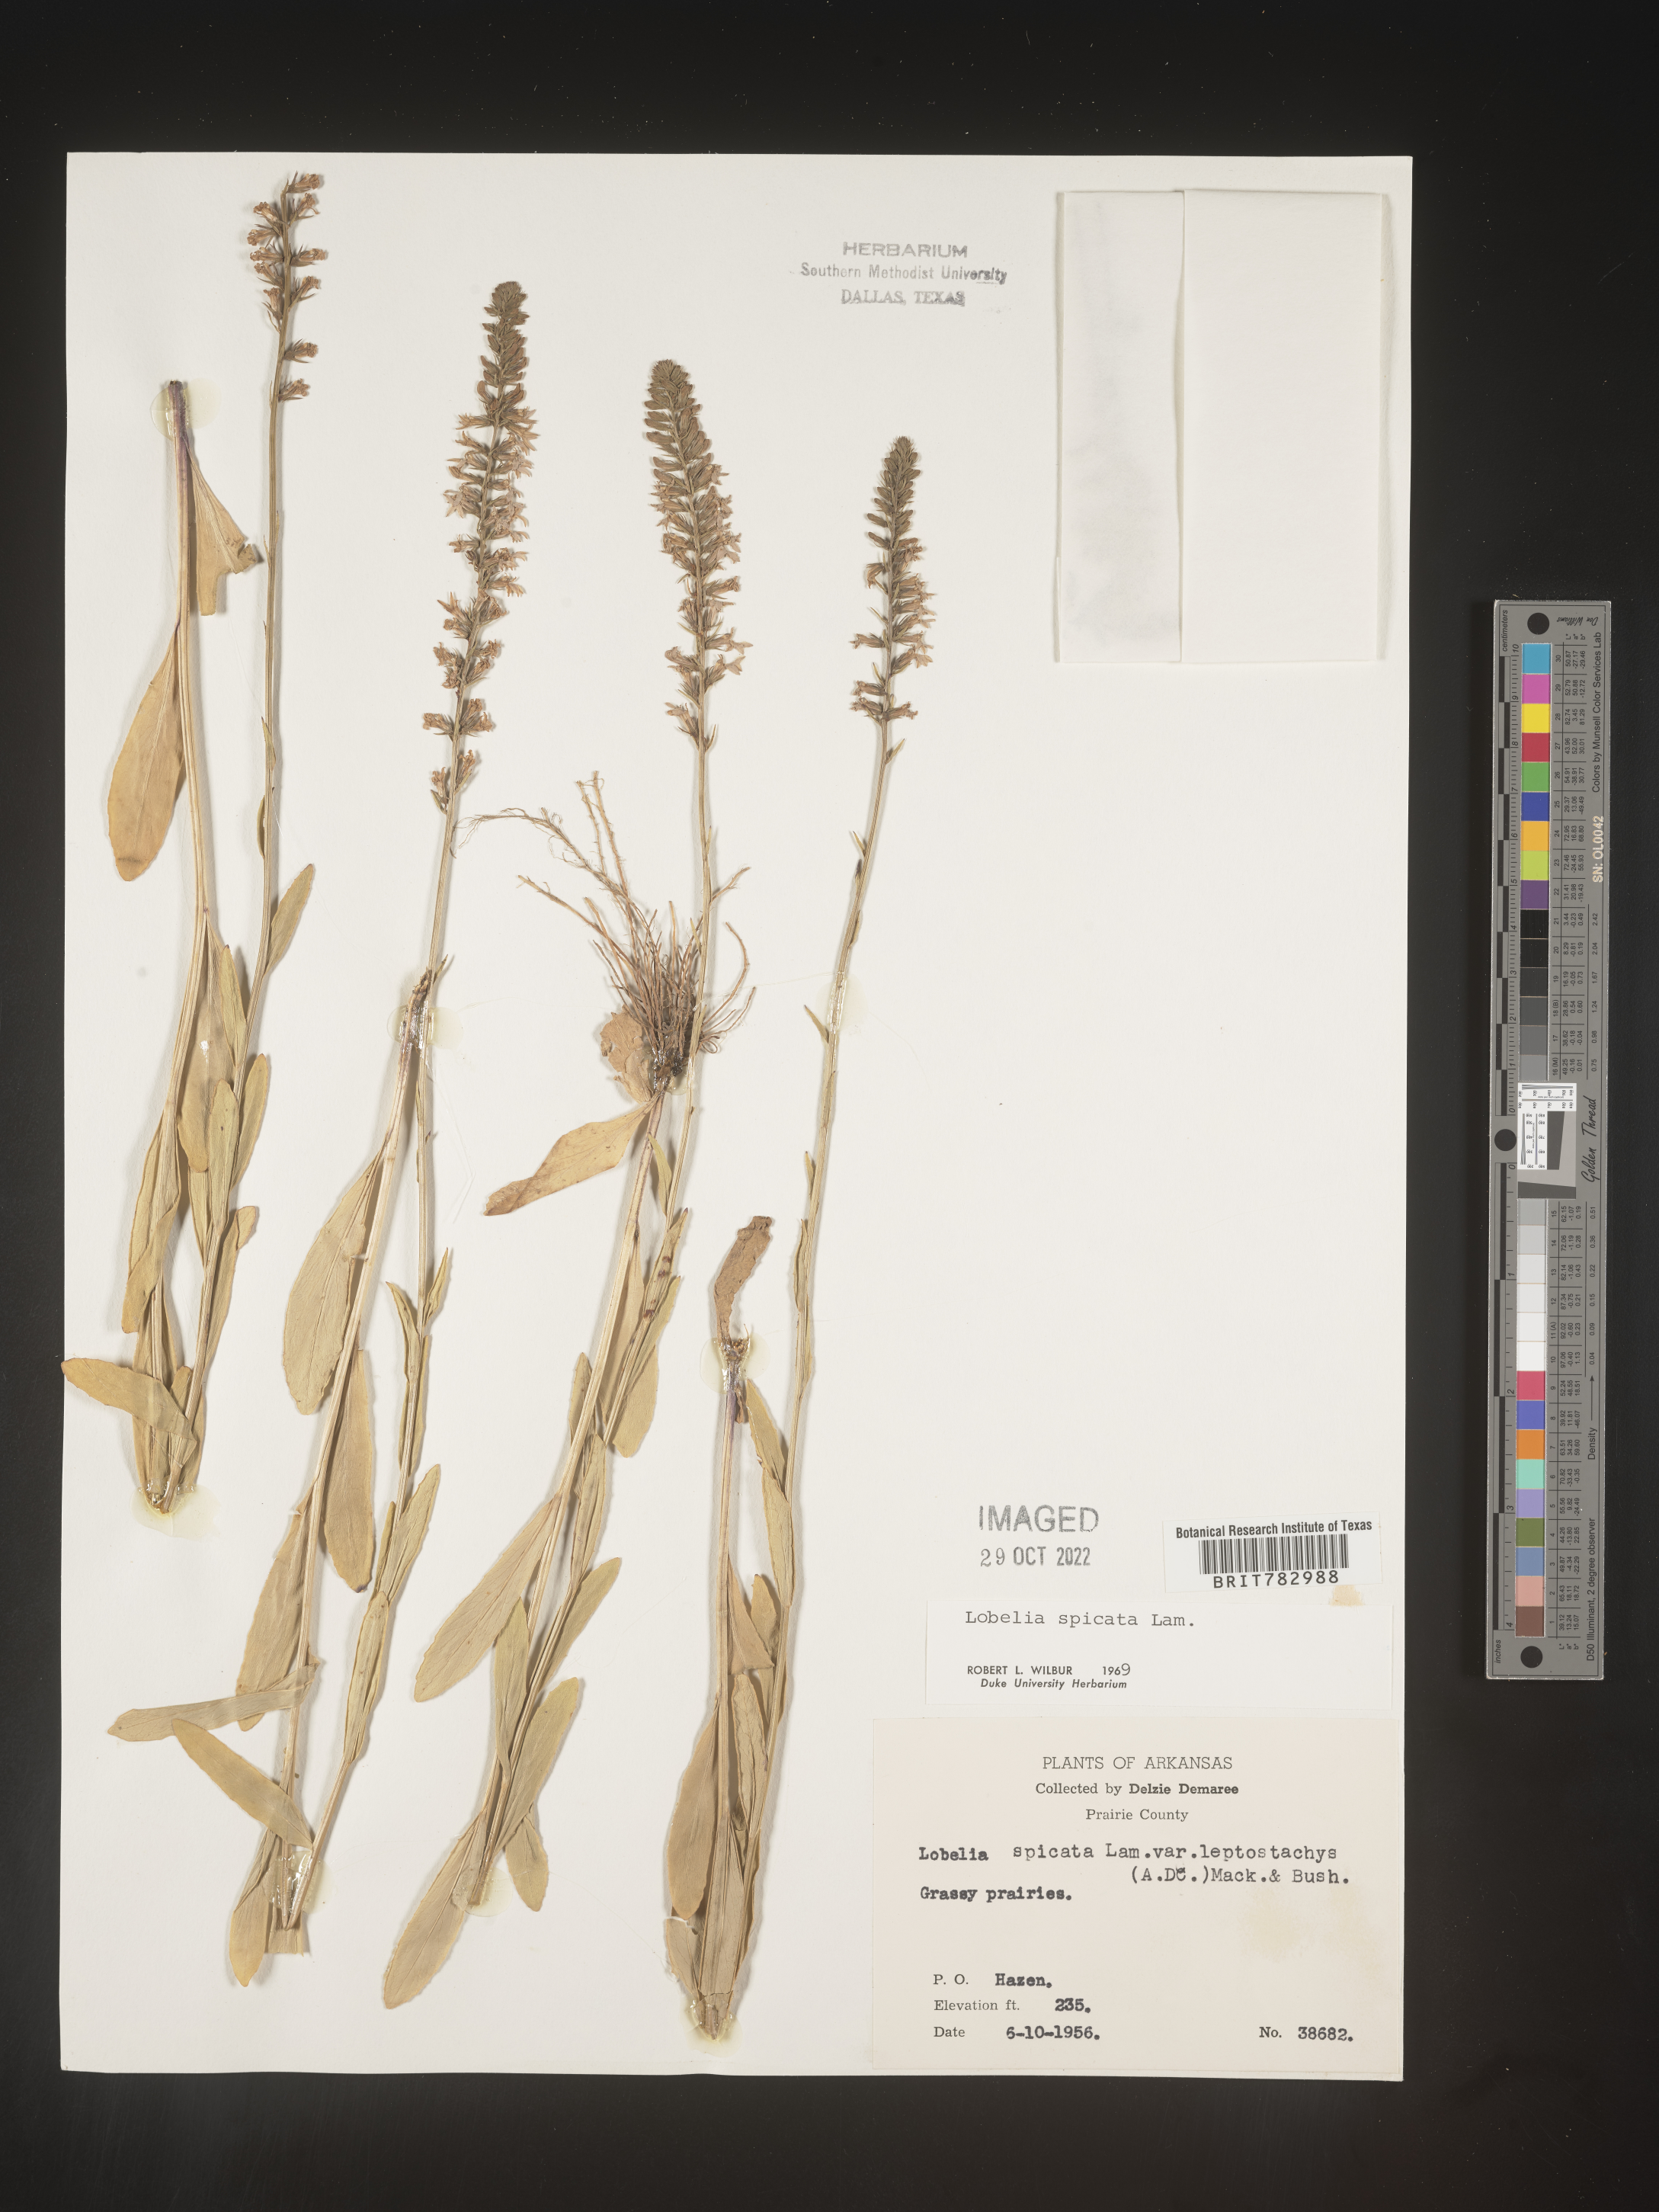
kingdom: Plantae
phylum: Tracheophyta
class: Magnoliopsida
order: Asterales
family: Campanulaceae
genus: Lobelia
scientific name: Lobelia spicata
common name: Pale-spike lobelia
